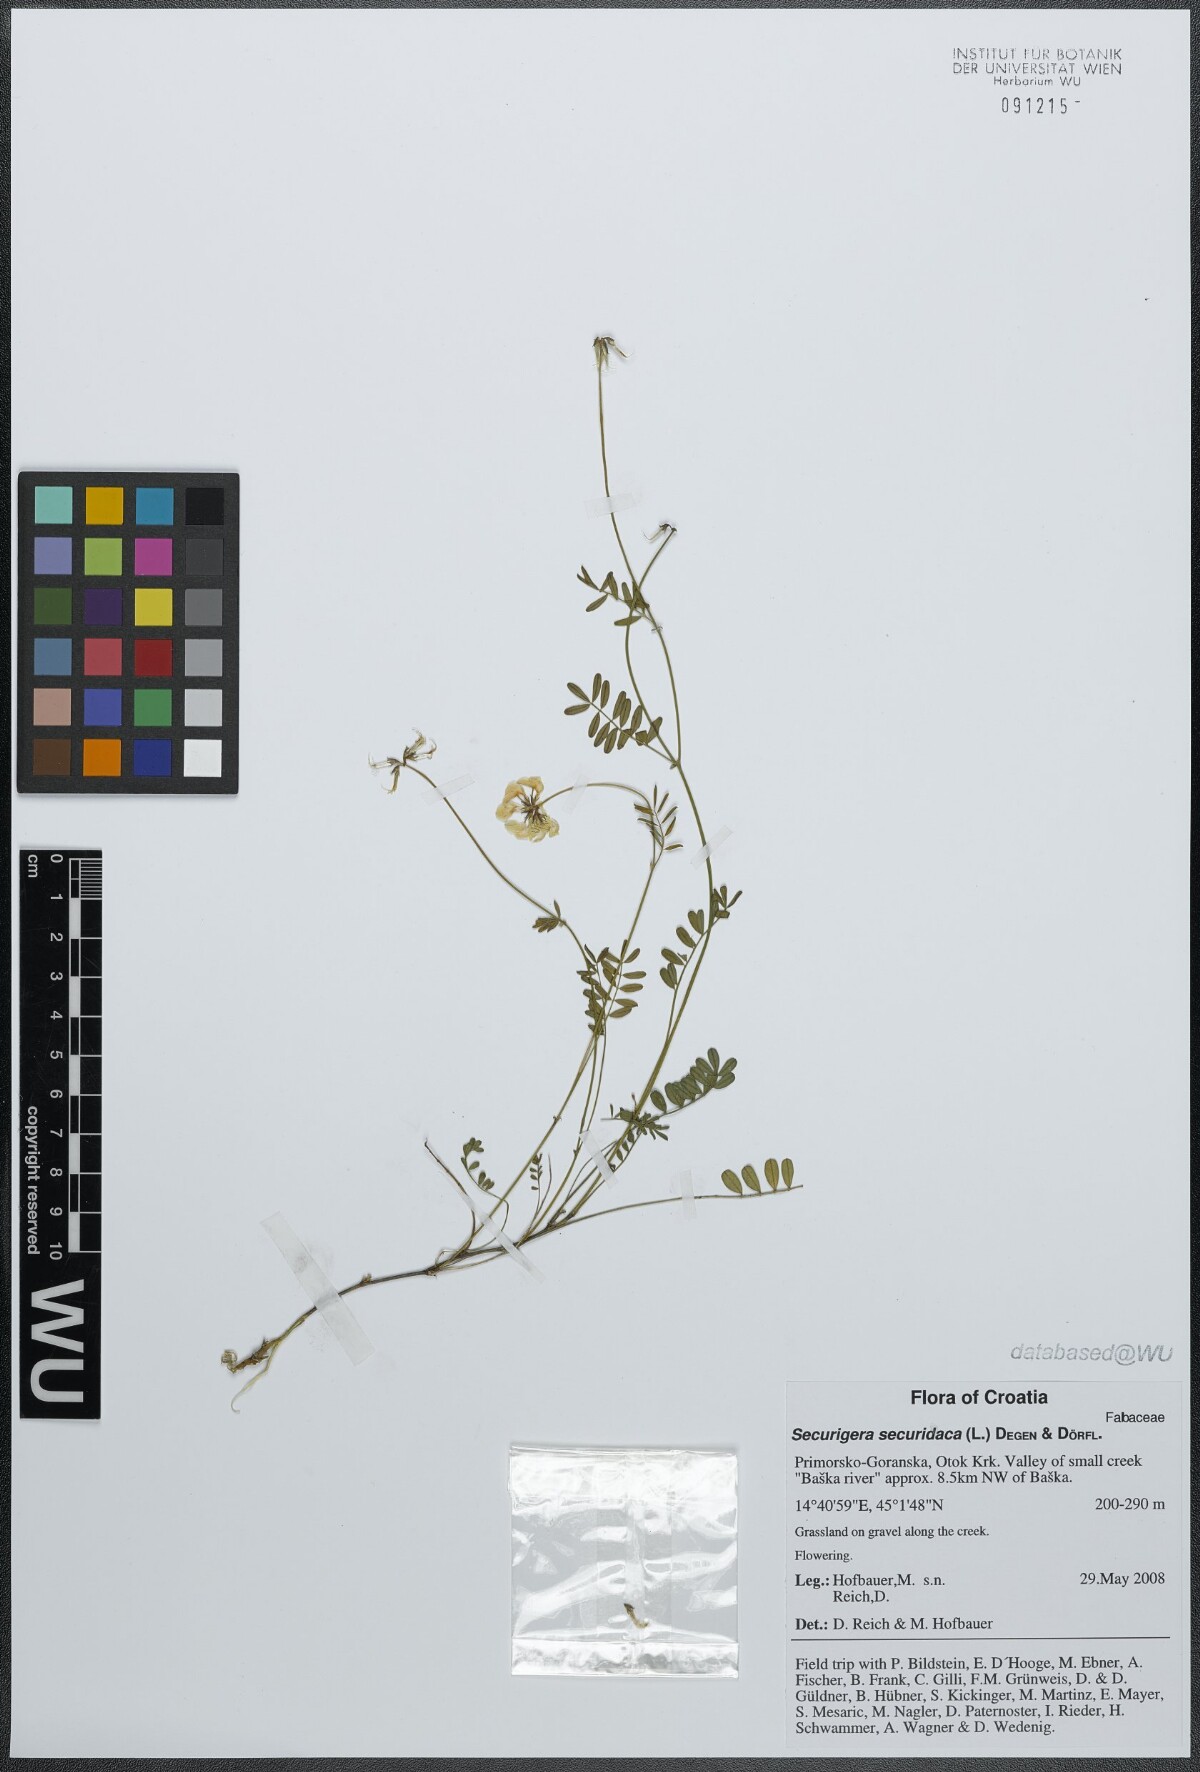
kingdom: Plantae
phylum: Tracheophyta
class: Magnoliopsida
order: Fabales
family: Fabaceae
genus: Coronilla
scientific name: Coronilla securidaca
